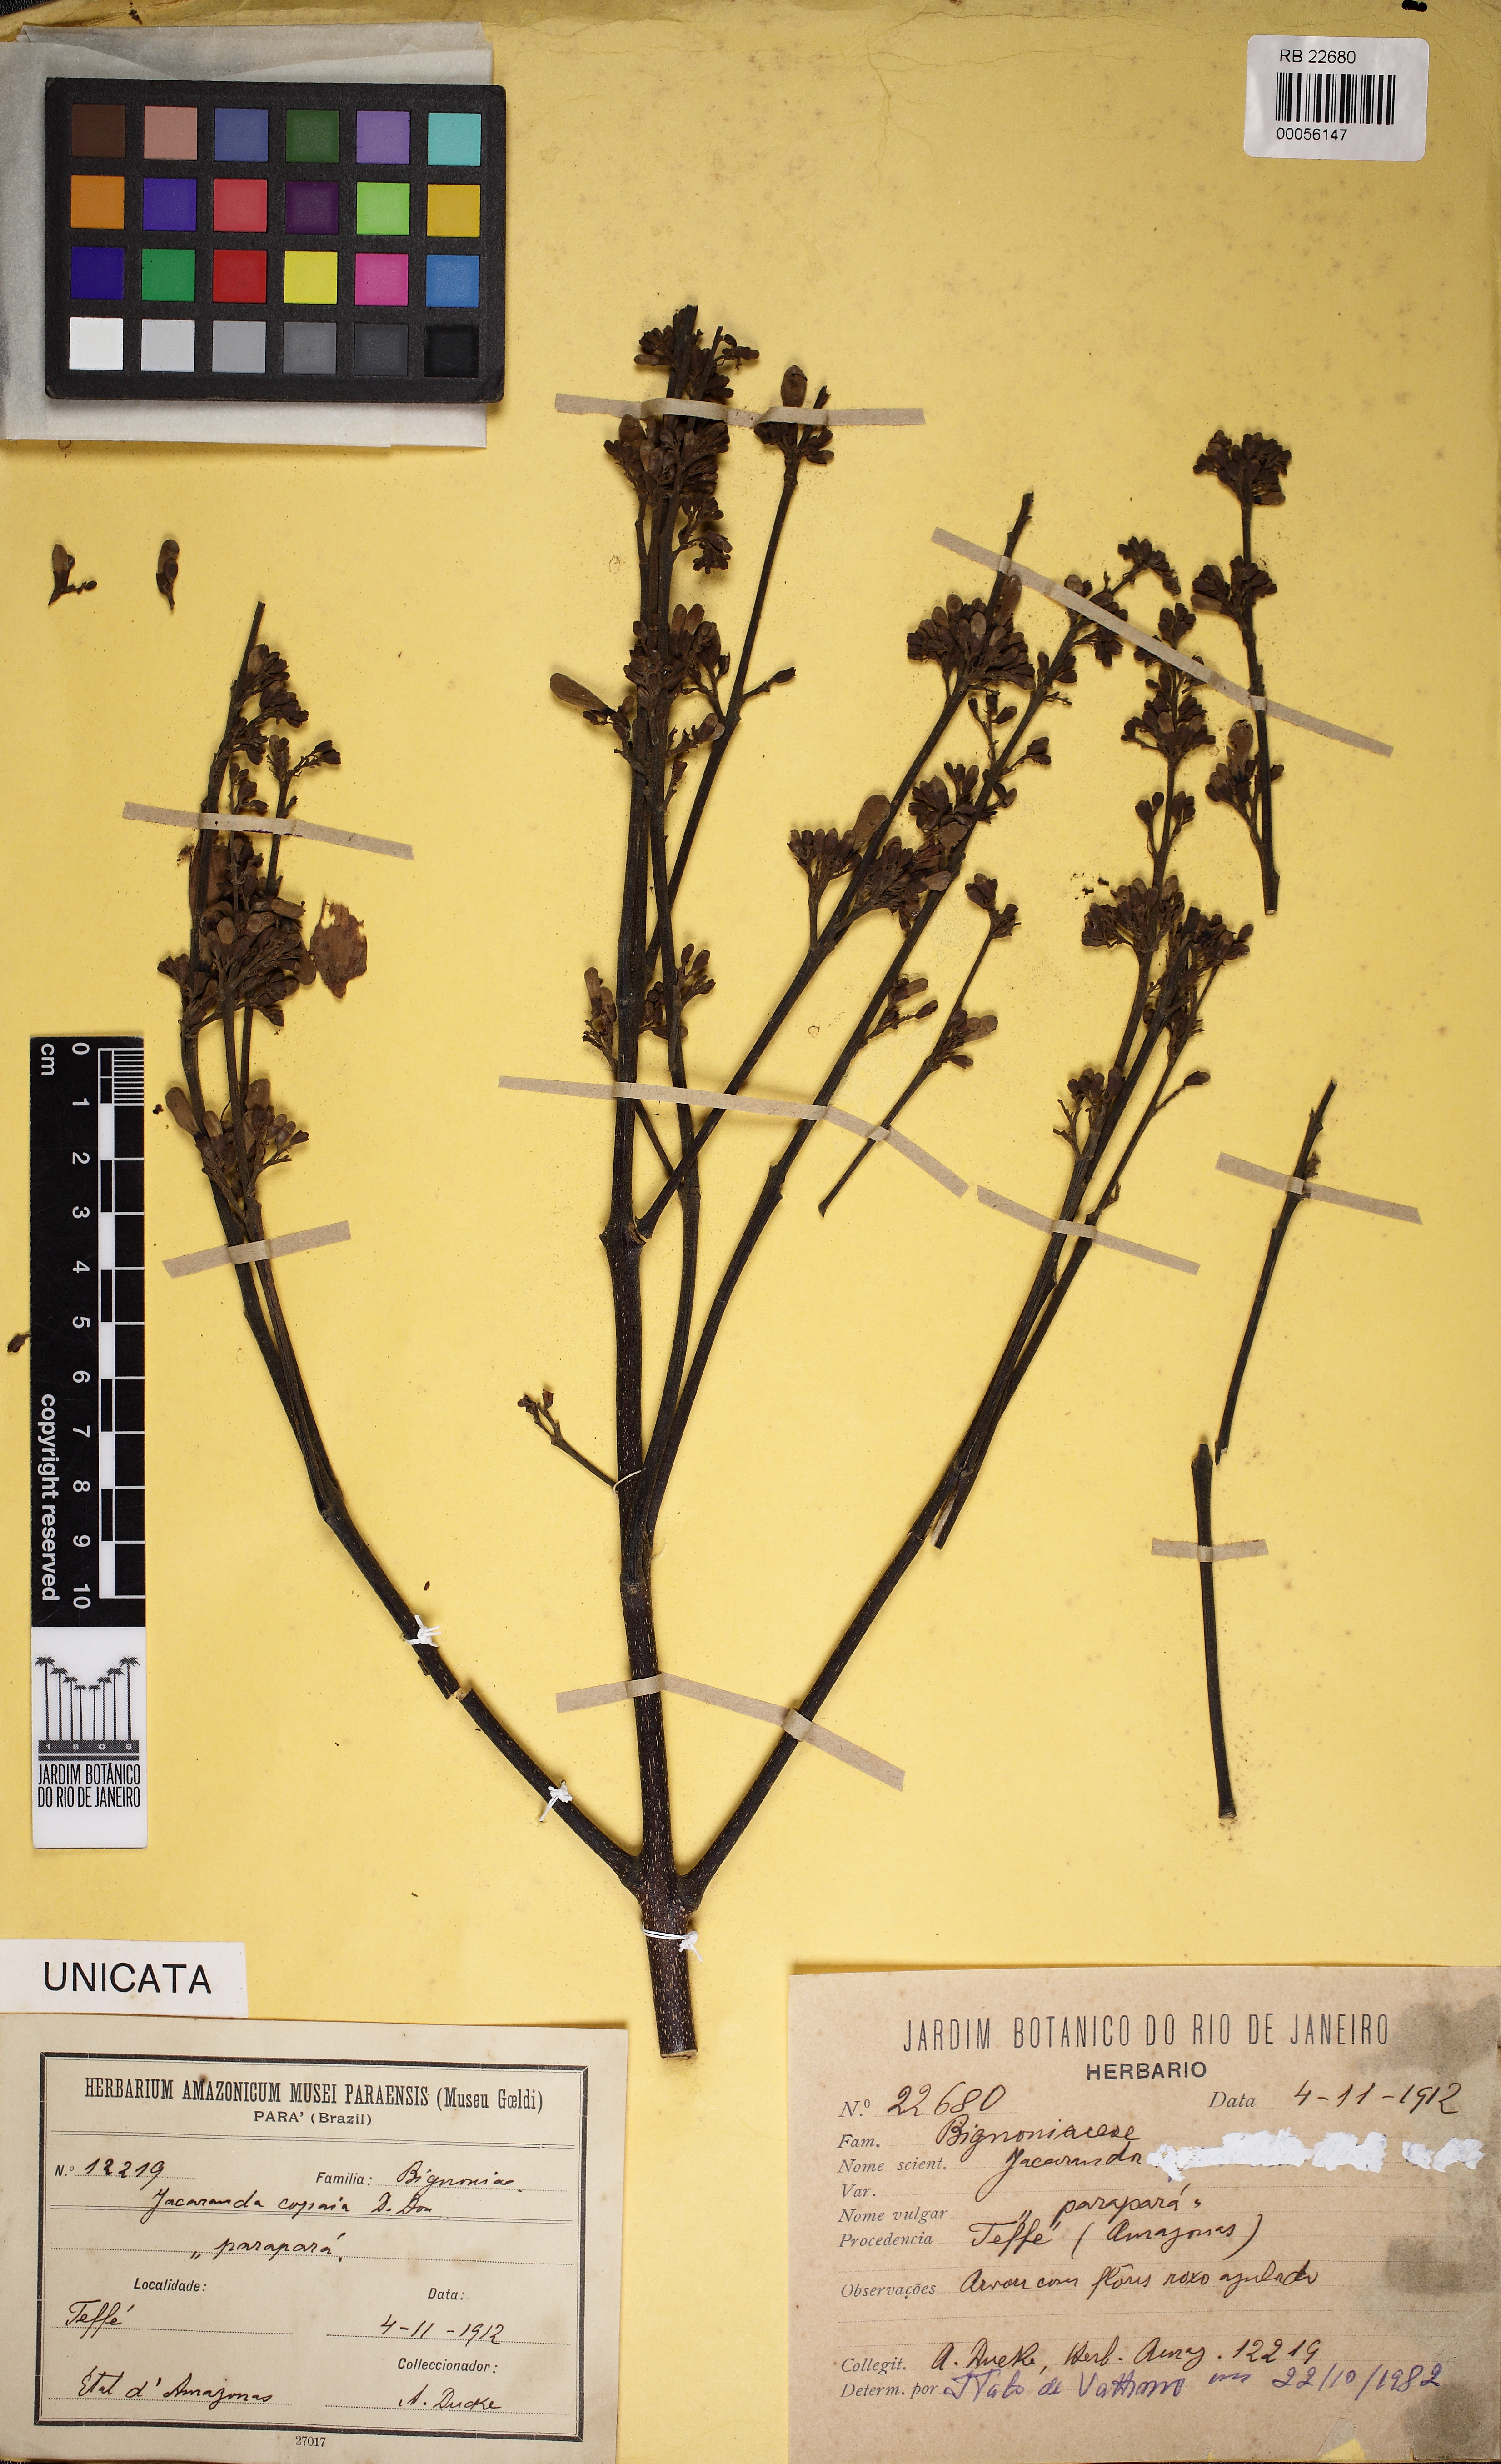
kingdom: Plantae
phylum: Tracheophyta
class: Magnoliopsida
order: Lamiales
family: Bignoniaceae
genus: Jacaranda
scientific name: Jacaranda copaia
